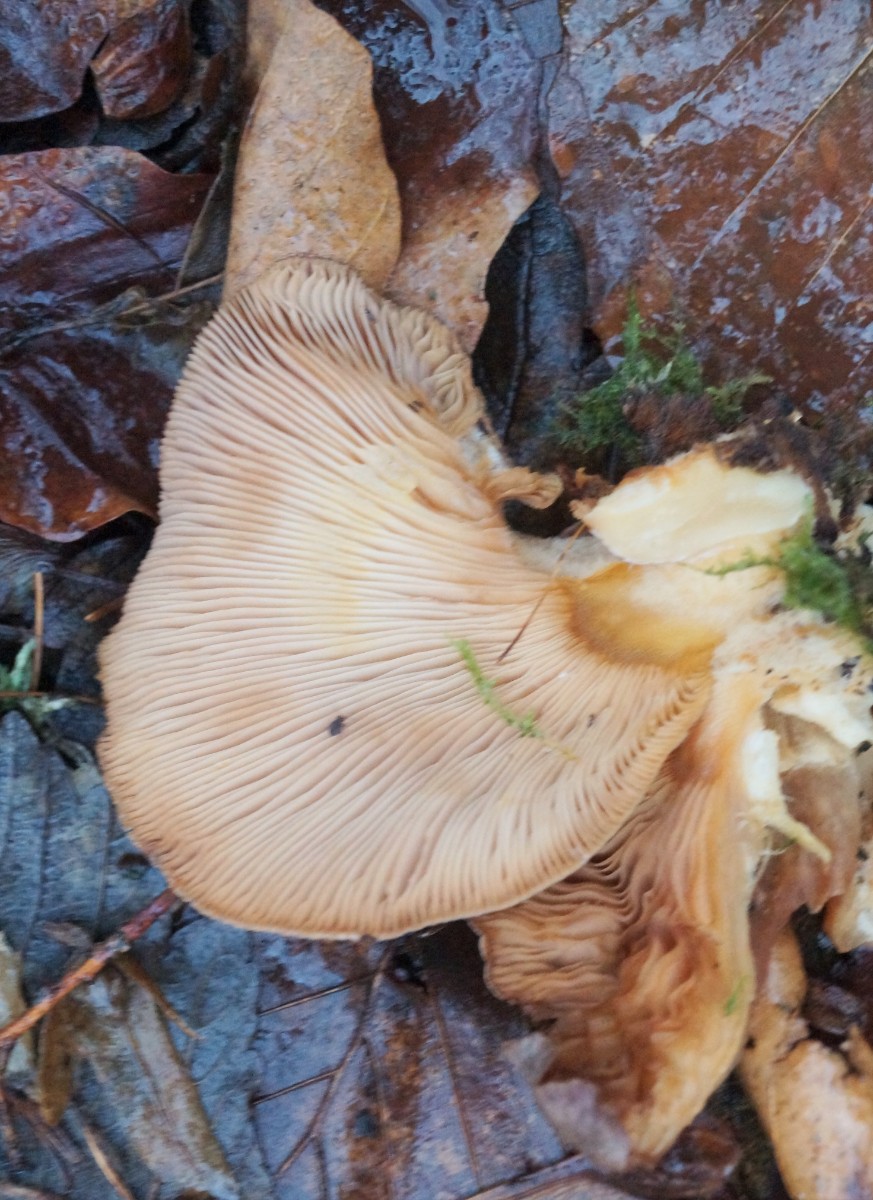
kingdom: Fungi
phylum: Basidiomycota
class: Agaricomycetes
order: Agaricales
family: Sarcomyxaceae
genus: Sarcomyxa
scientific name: Sarcomyxa serotina
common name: gummihat
